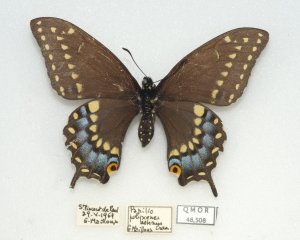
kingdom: Animalia
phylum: Arthropoda
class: Insecta
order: Lepidoptera
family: Papilionidae
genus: Papilio
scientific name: Papilio polyxenes
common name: Black Swallowtail
